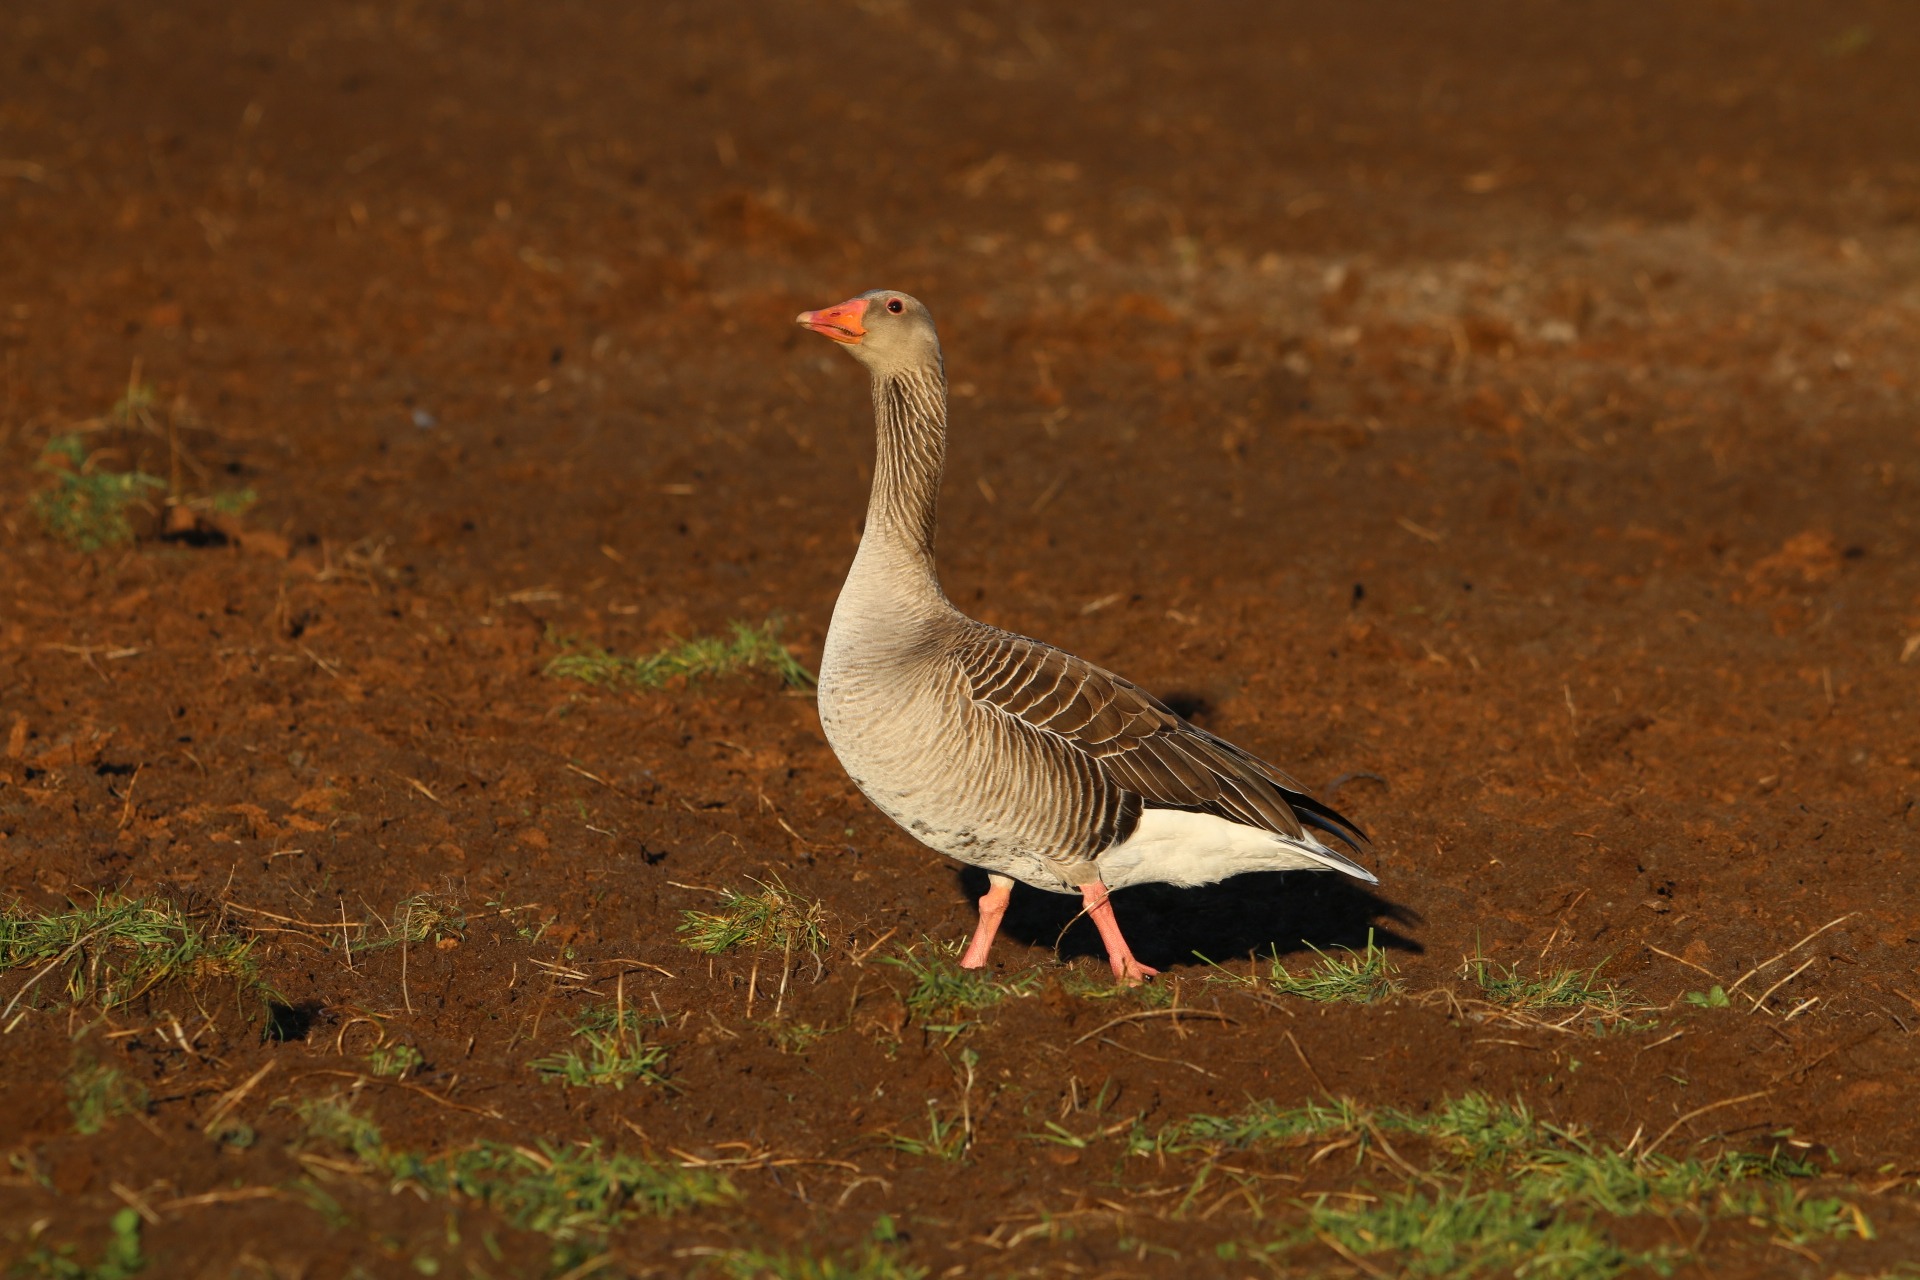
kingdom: Animalia
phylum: Chordata
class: Aves
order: Anseriformes
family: Anatidae
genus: Anser
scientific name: Anser anser
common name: Grågås
